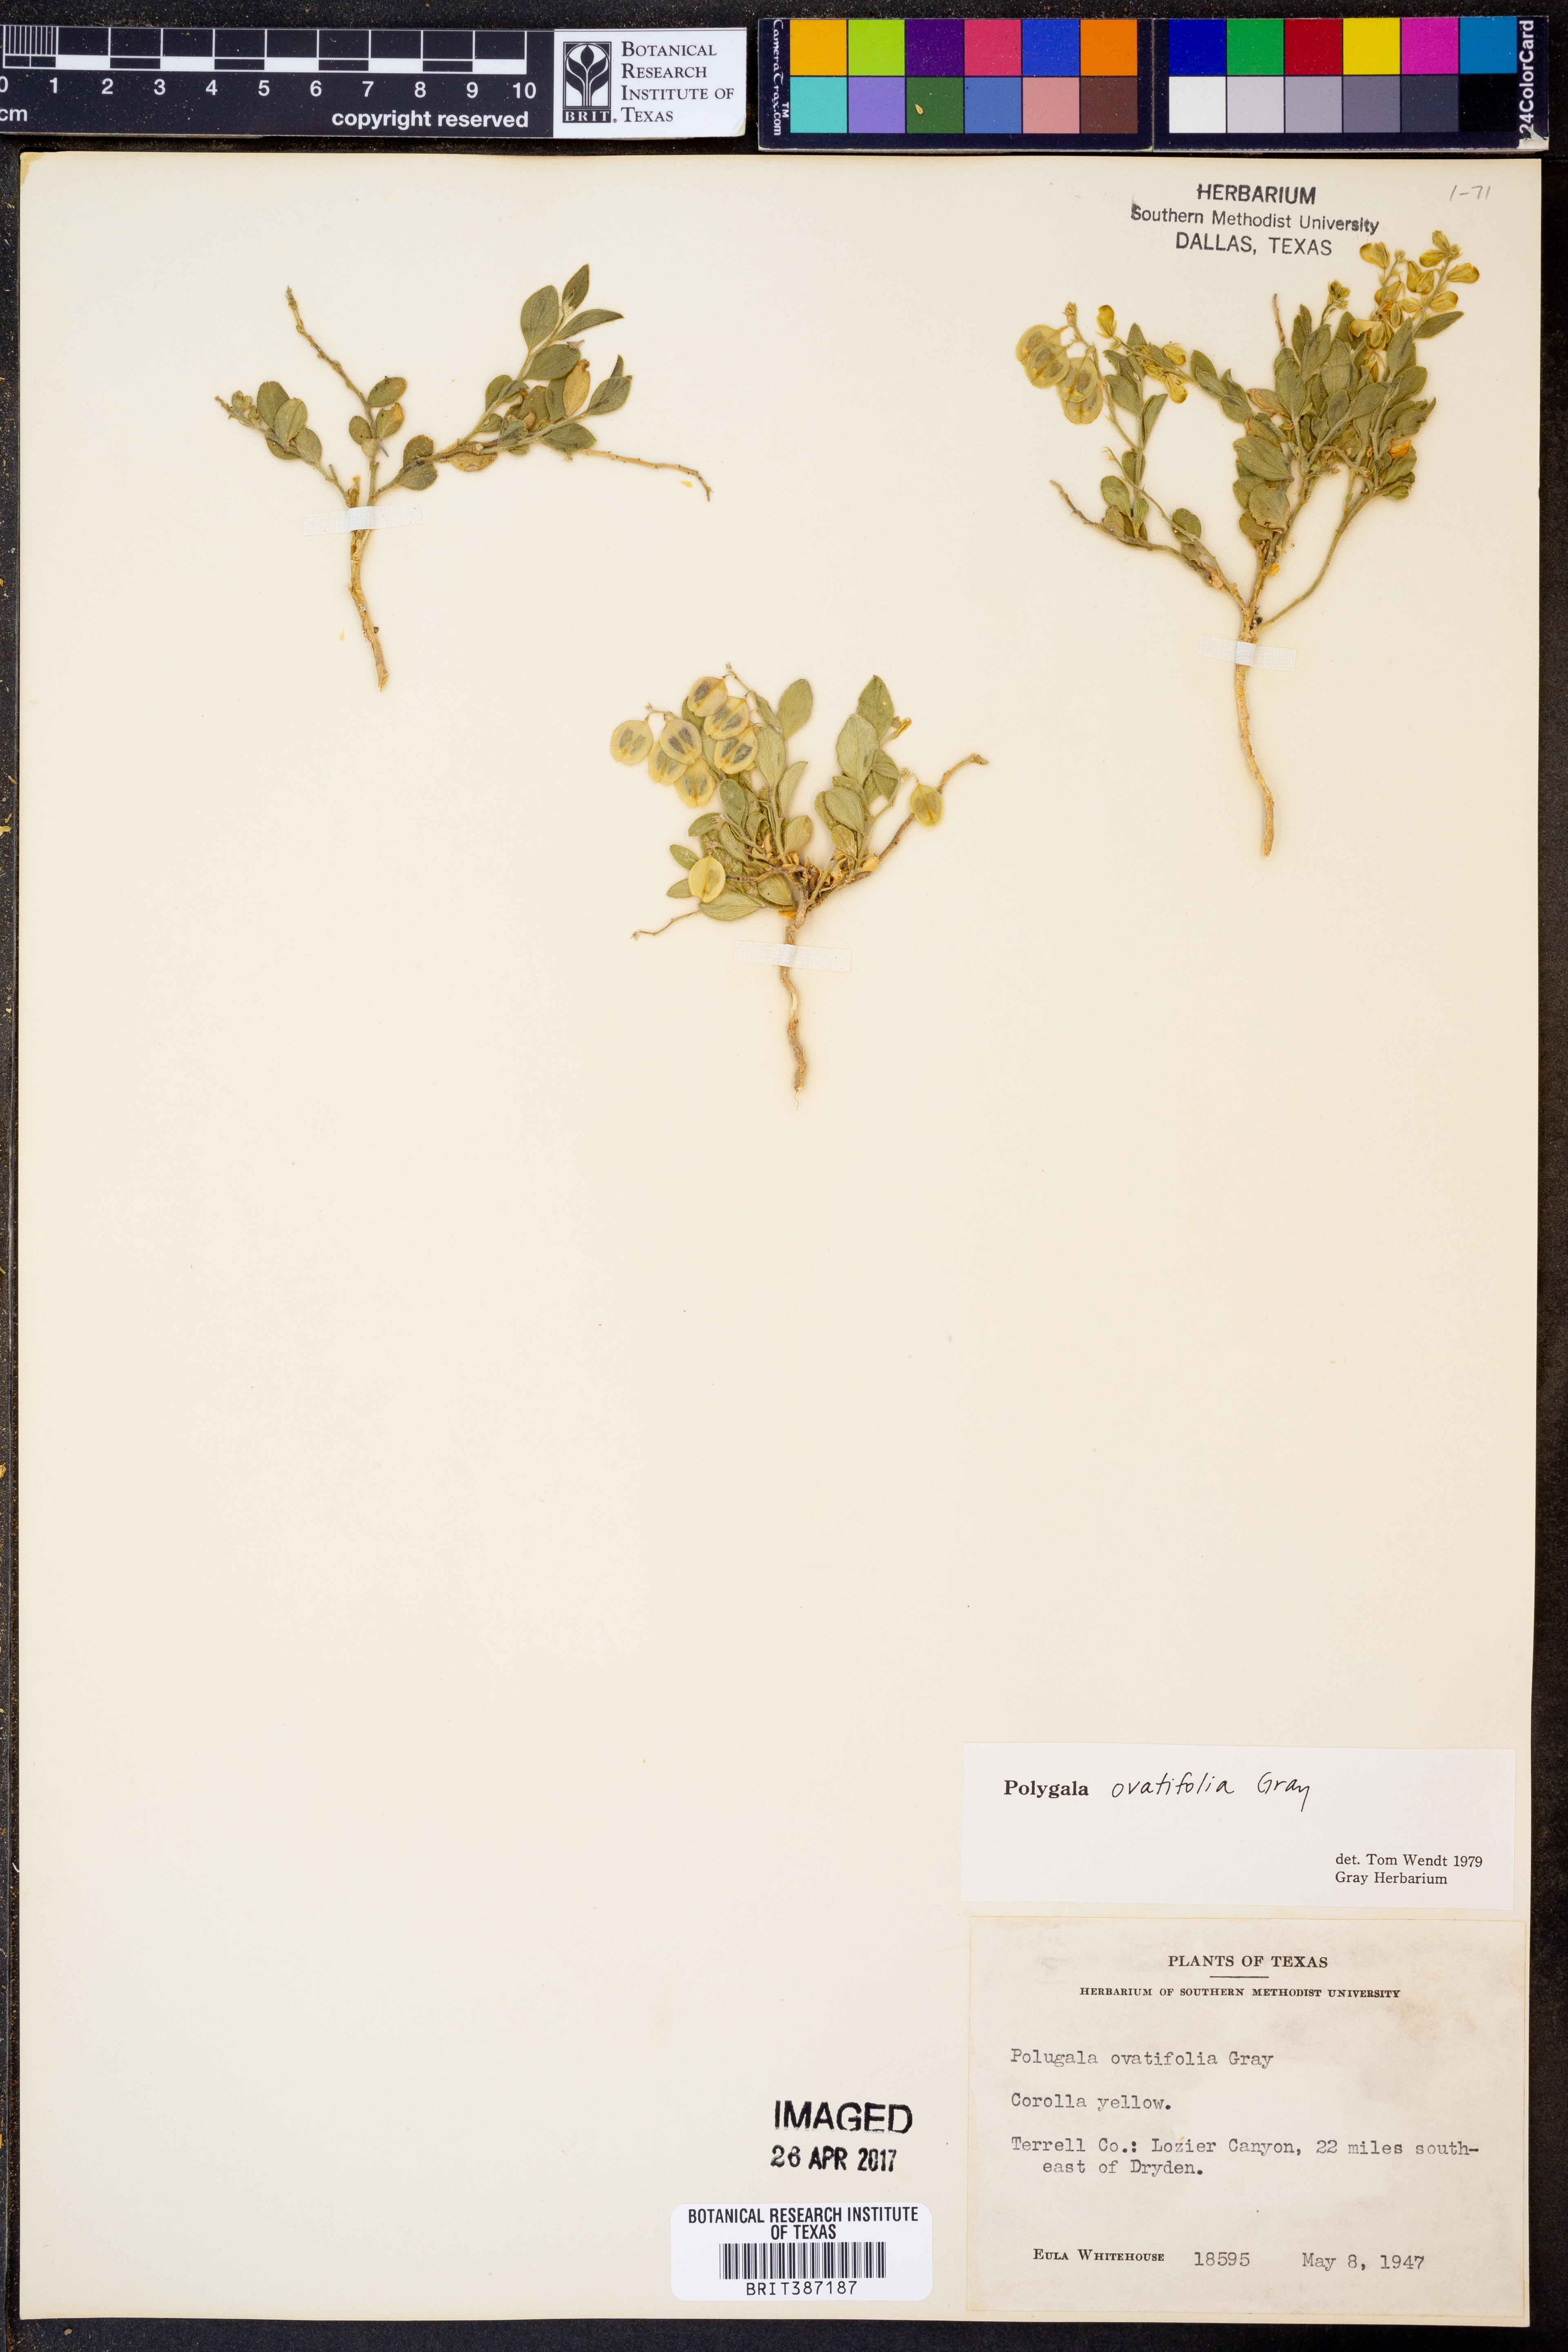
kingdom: Plantae
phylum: Tracheophyta
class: Magnoliopsida
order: Fabales
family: Polygalaceae
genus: Hebecarpa
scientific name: Hebecarpa ovatifolia
